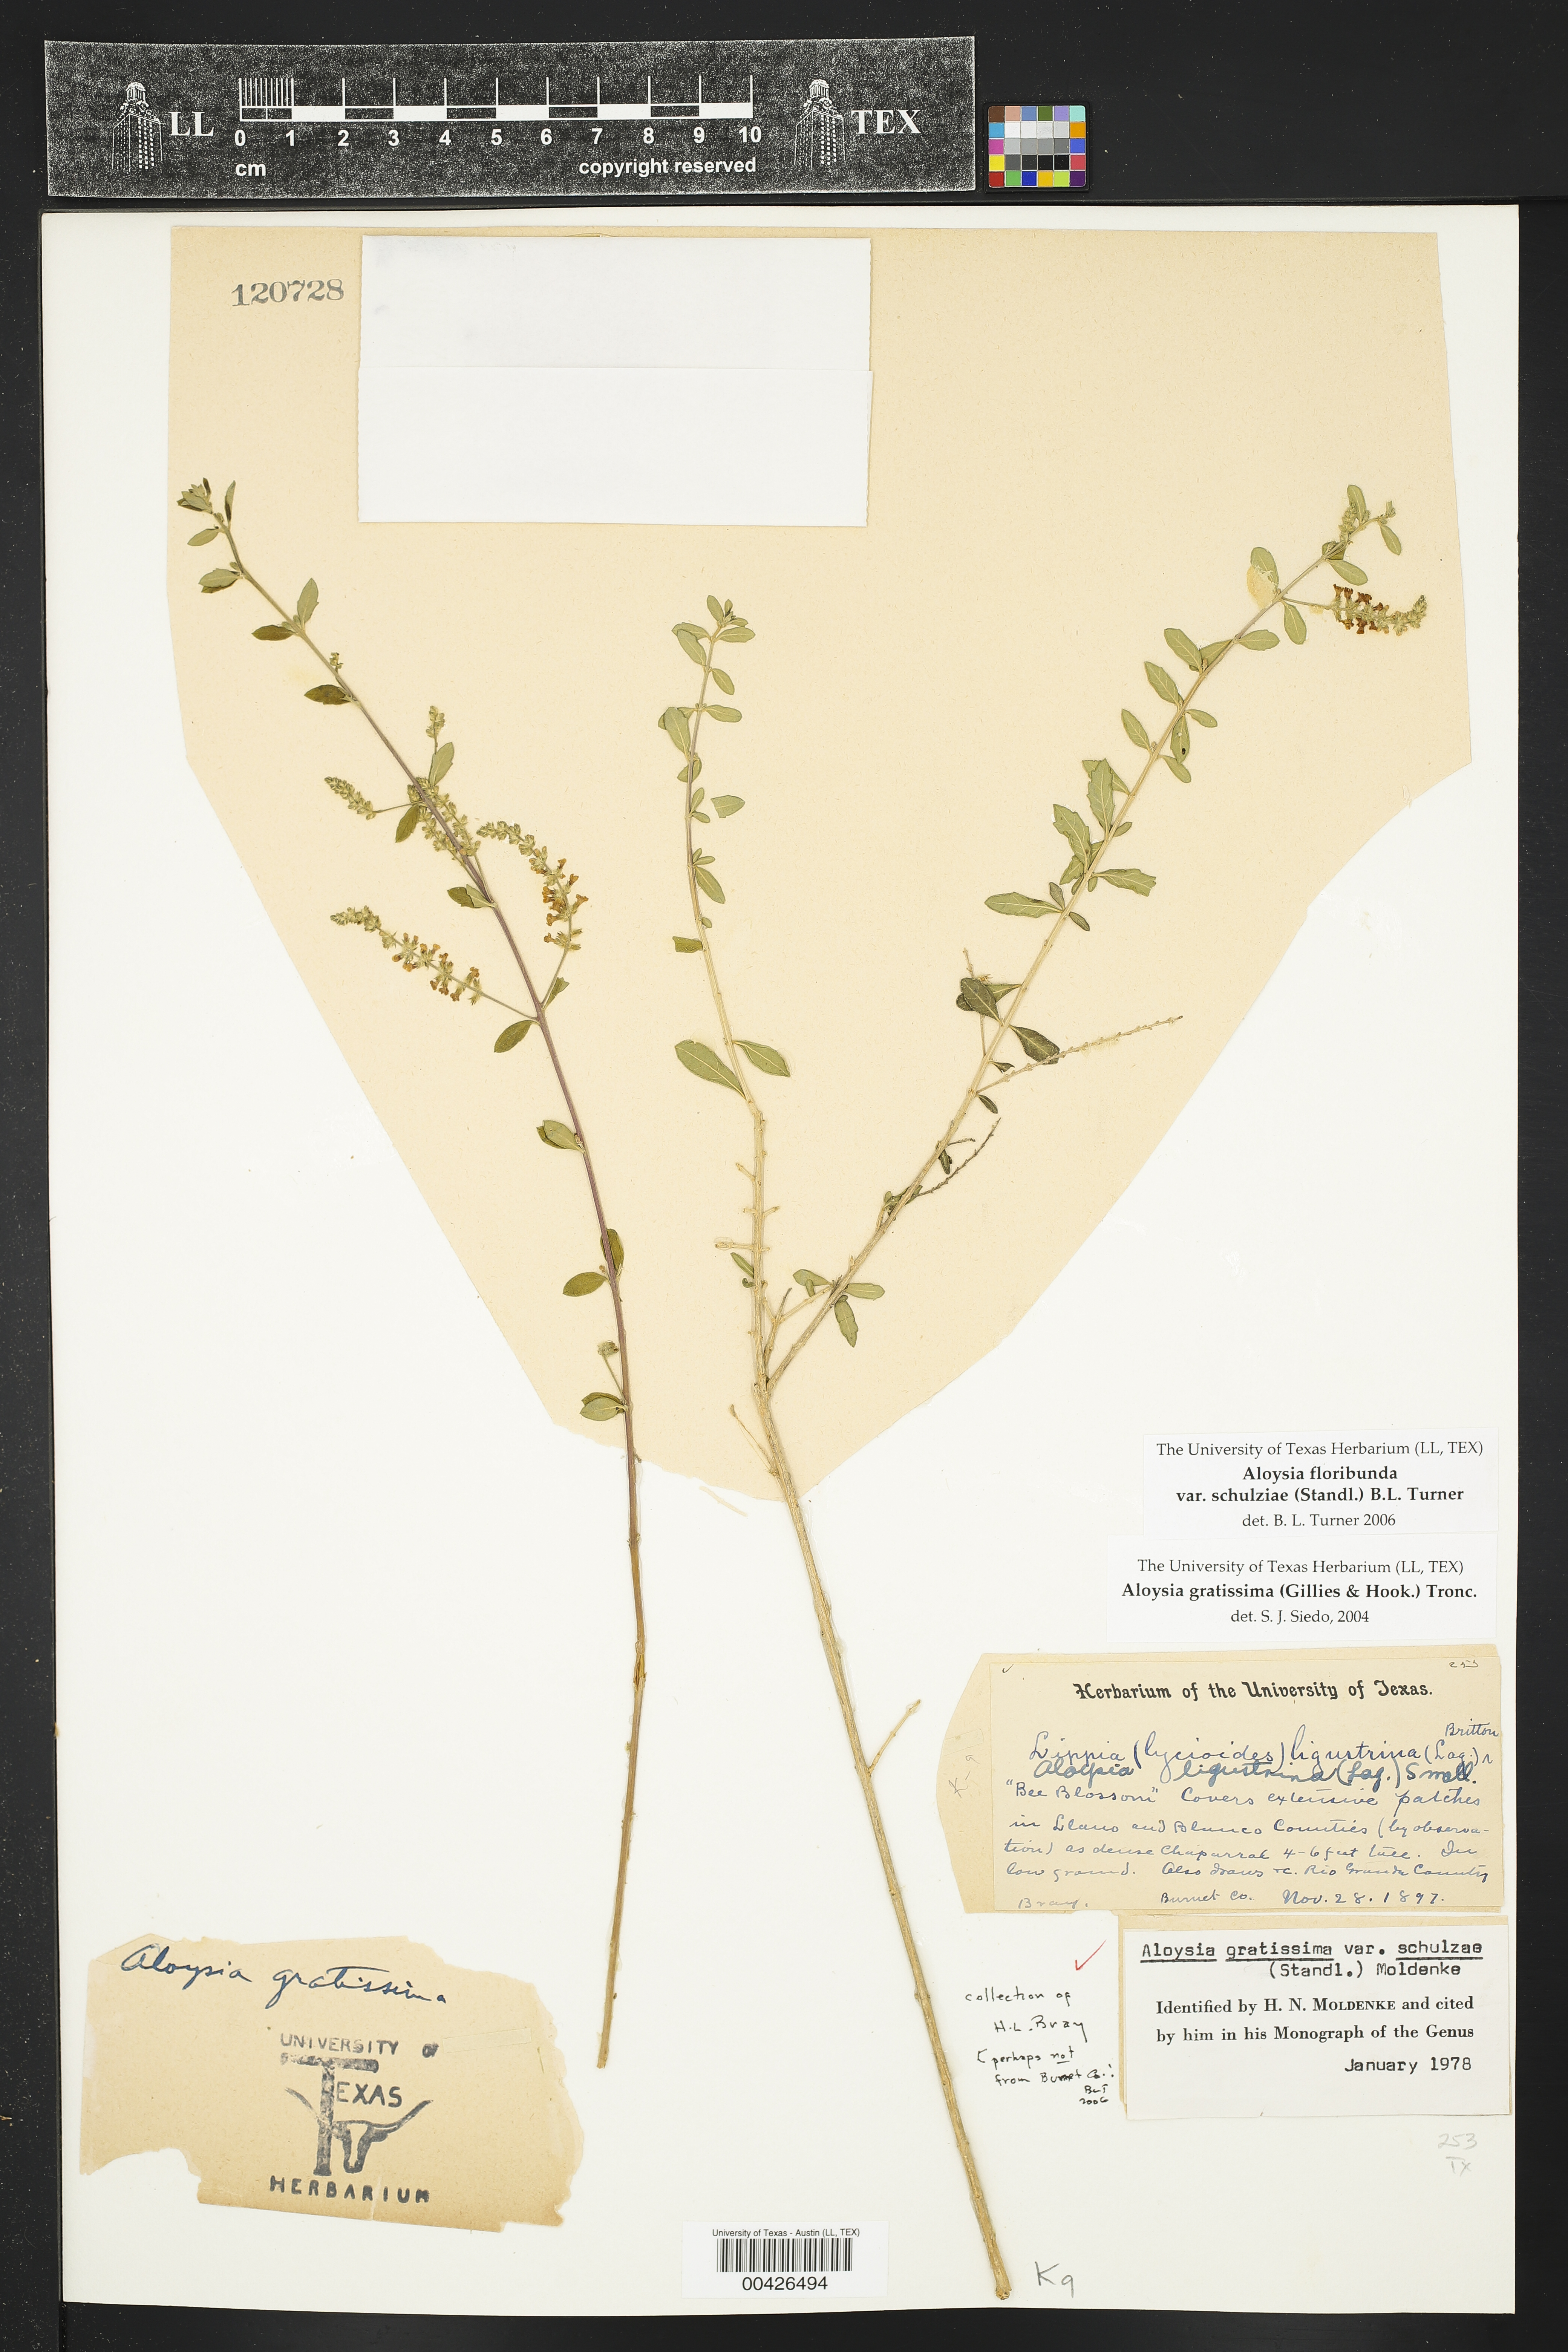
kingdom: Plantae
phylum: Tracheophyta
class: Magnoliopsida
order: Lamiales
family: Verbenaceae
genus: Aloysia
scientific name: Aloysia gratissima
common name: Common bee-brush
